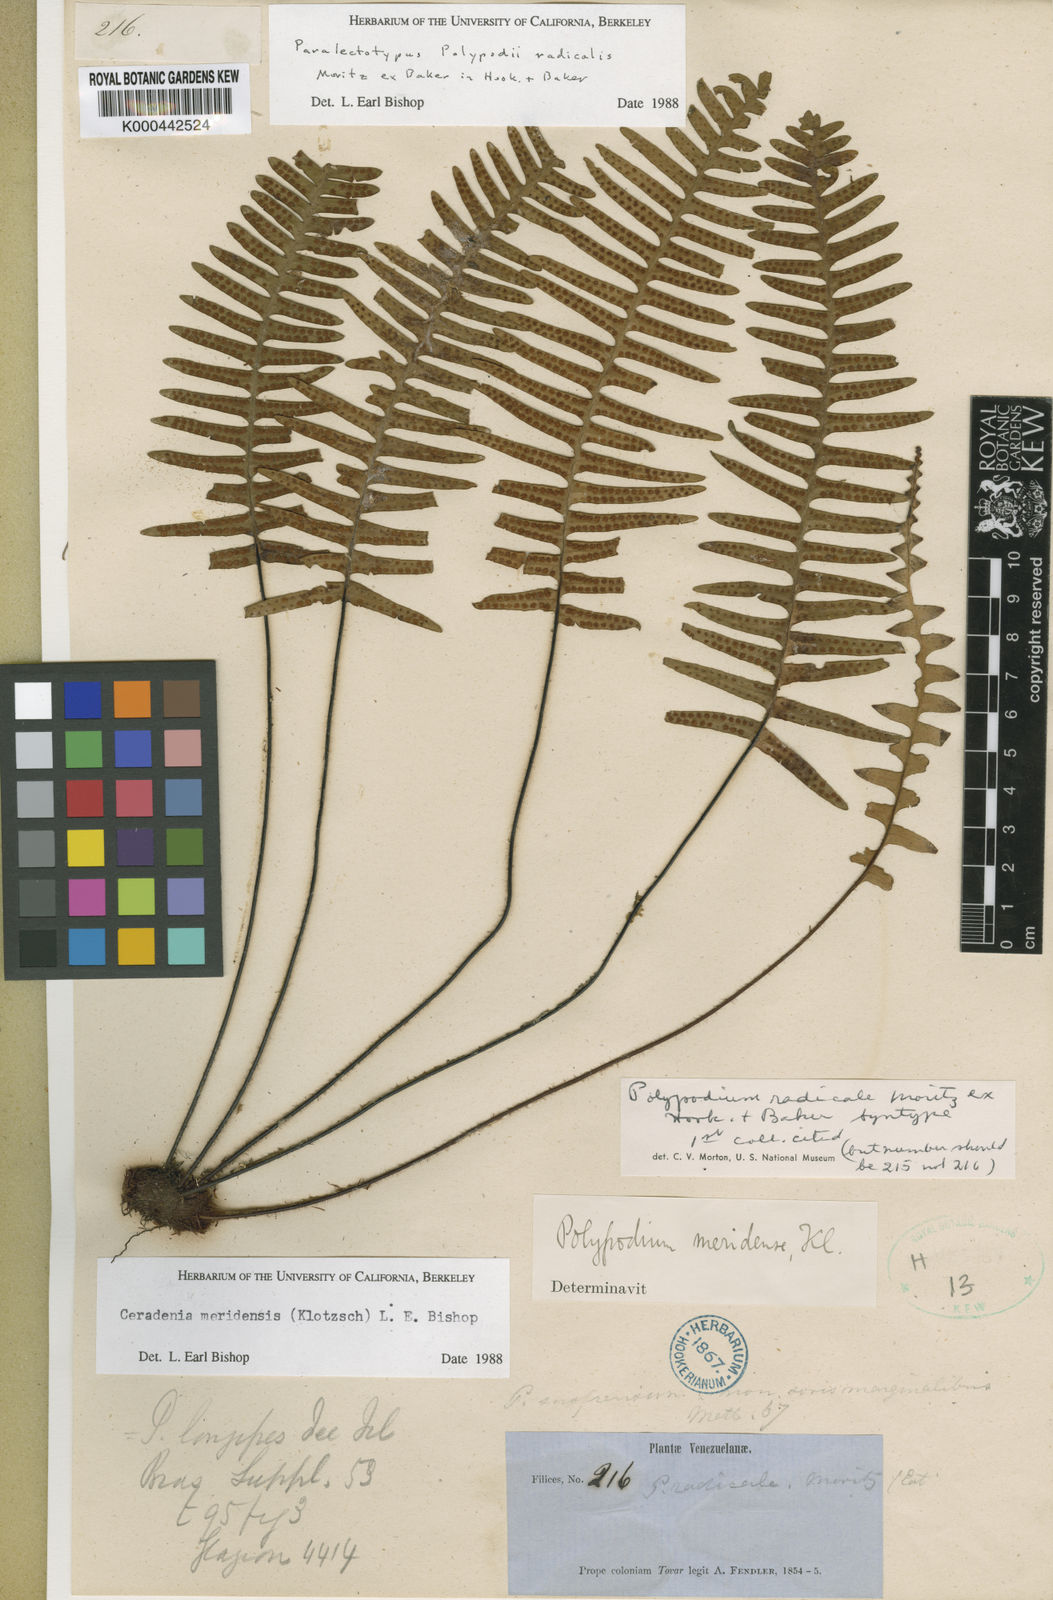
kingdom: Plantae
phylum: Tracheophyta
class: Polypodiopsida
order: Polypodiales
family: Polypodiaceae
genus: Ceradenia
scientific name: Ceradenia meridensis
